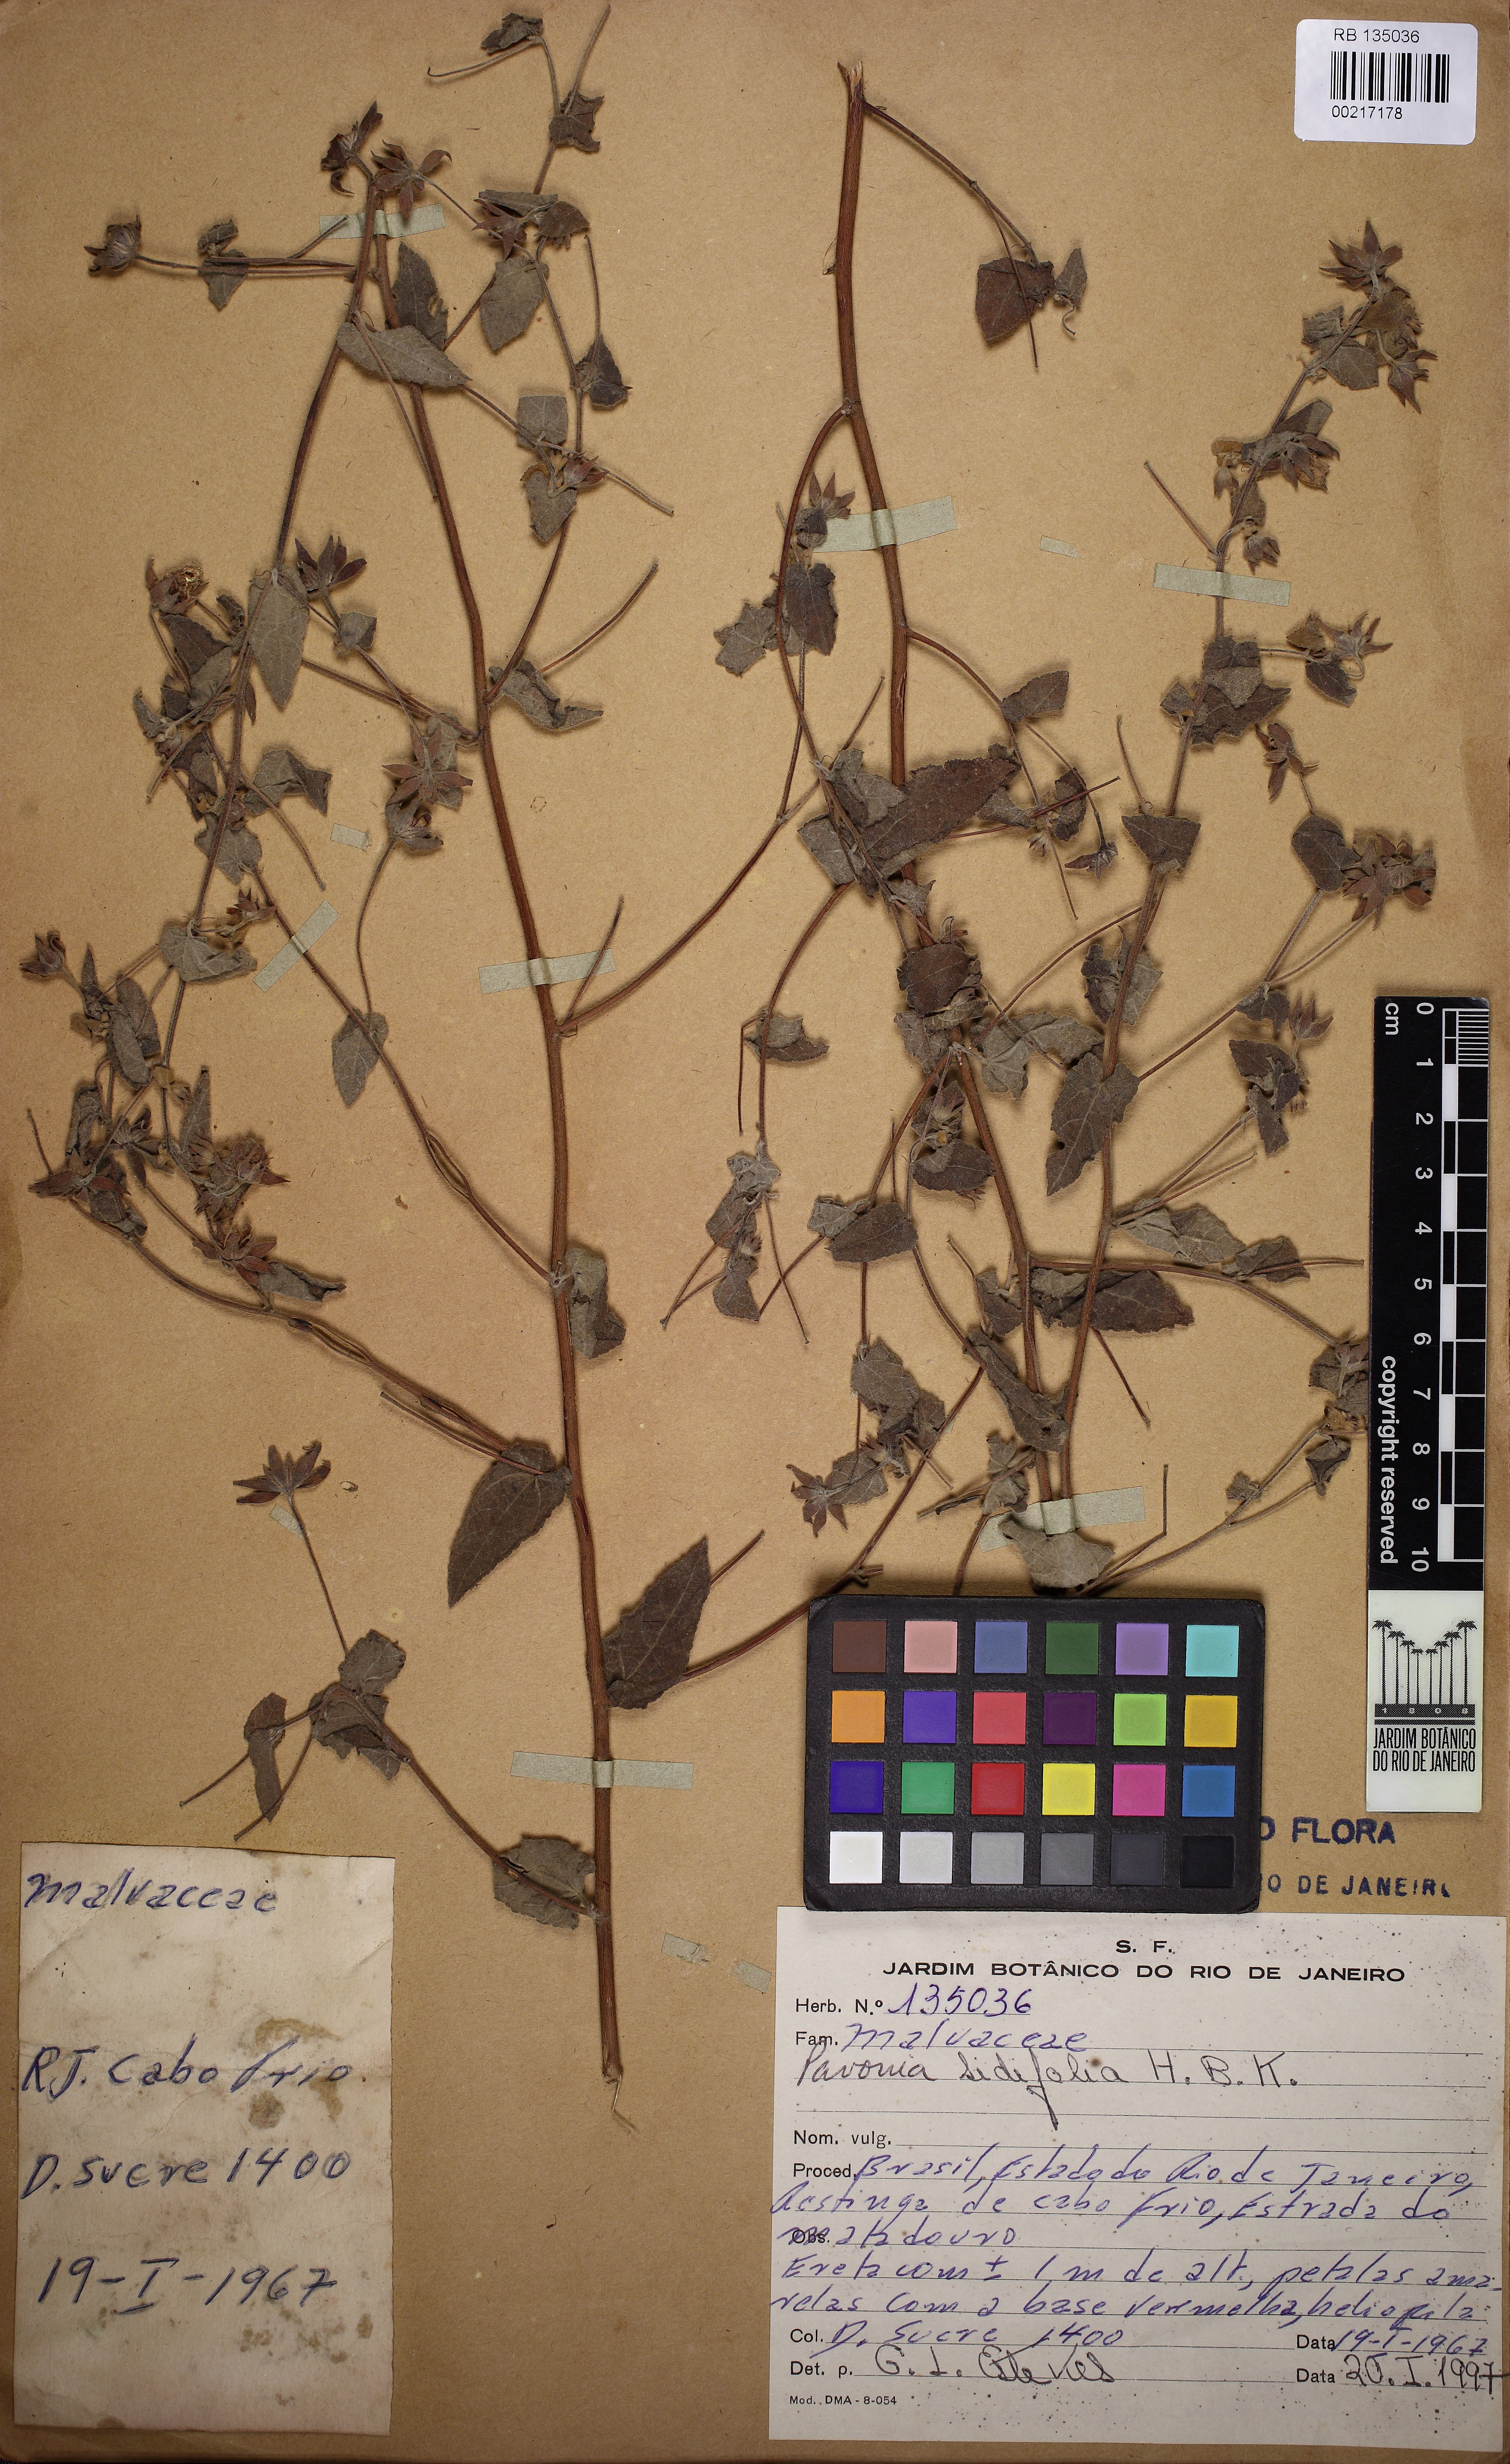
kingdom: Plantae
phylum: Tracheophyta
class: Magnoliopsida
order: Malvales
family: Malvaceae
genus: Pavonia
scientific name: Pavonia sidifolia
